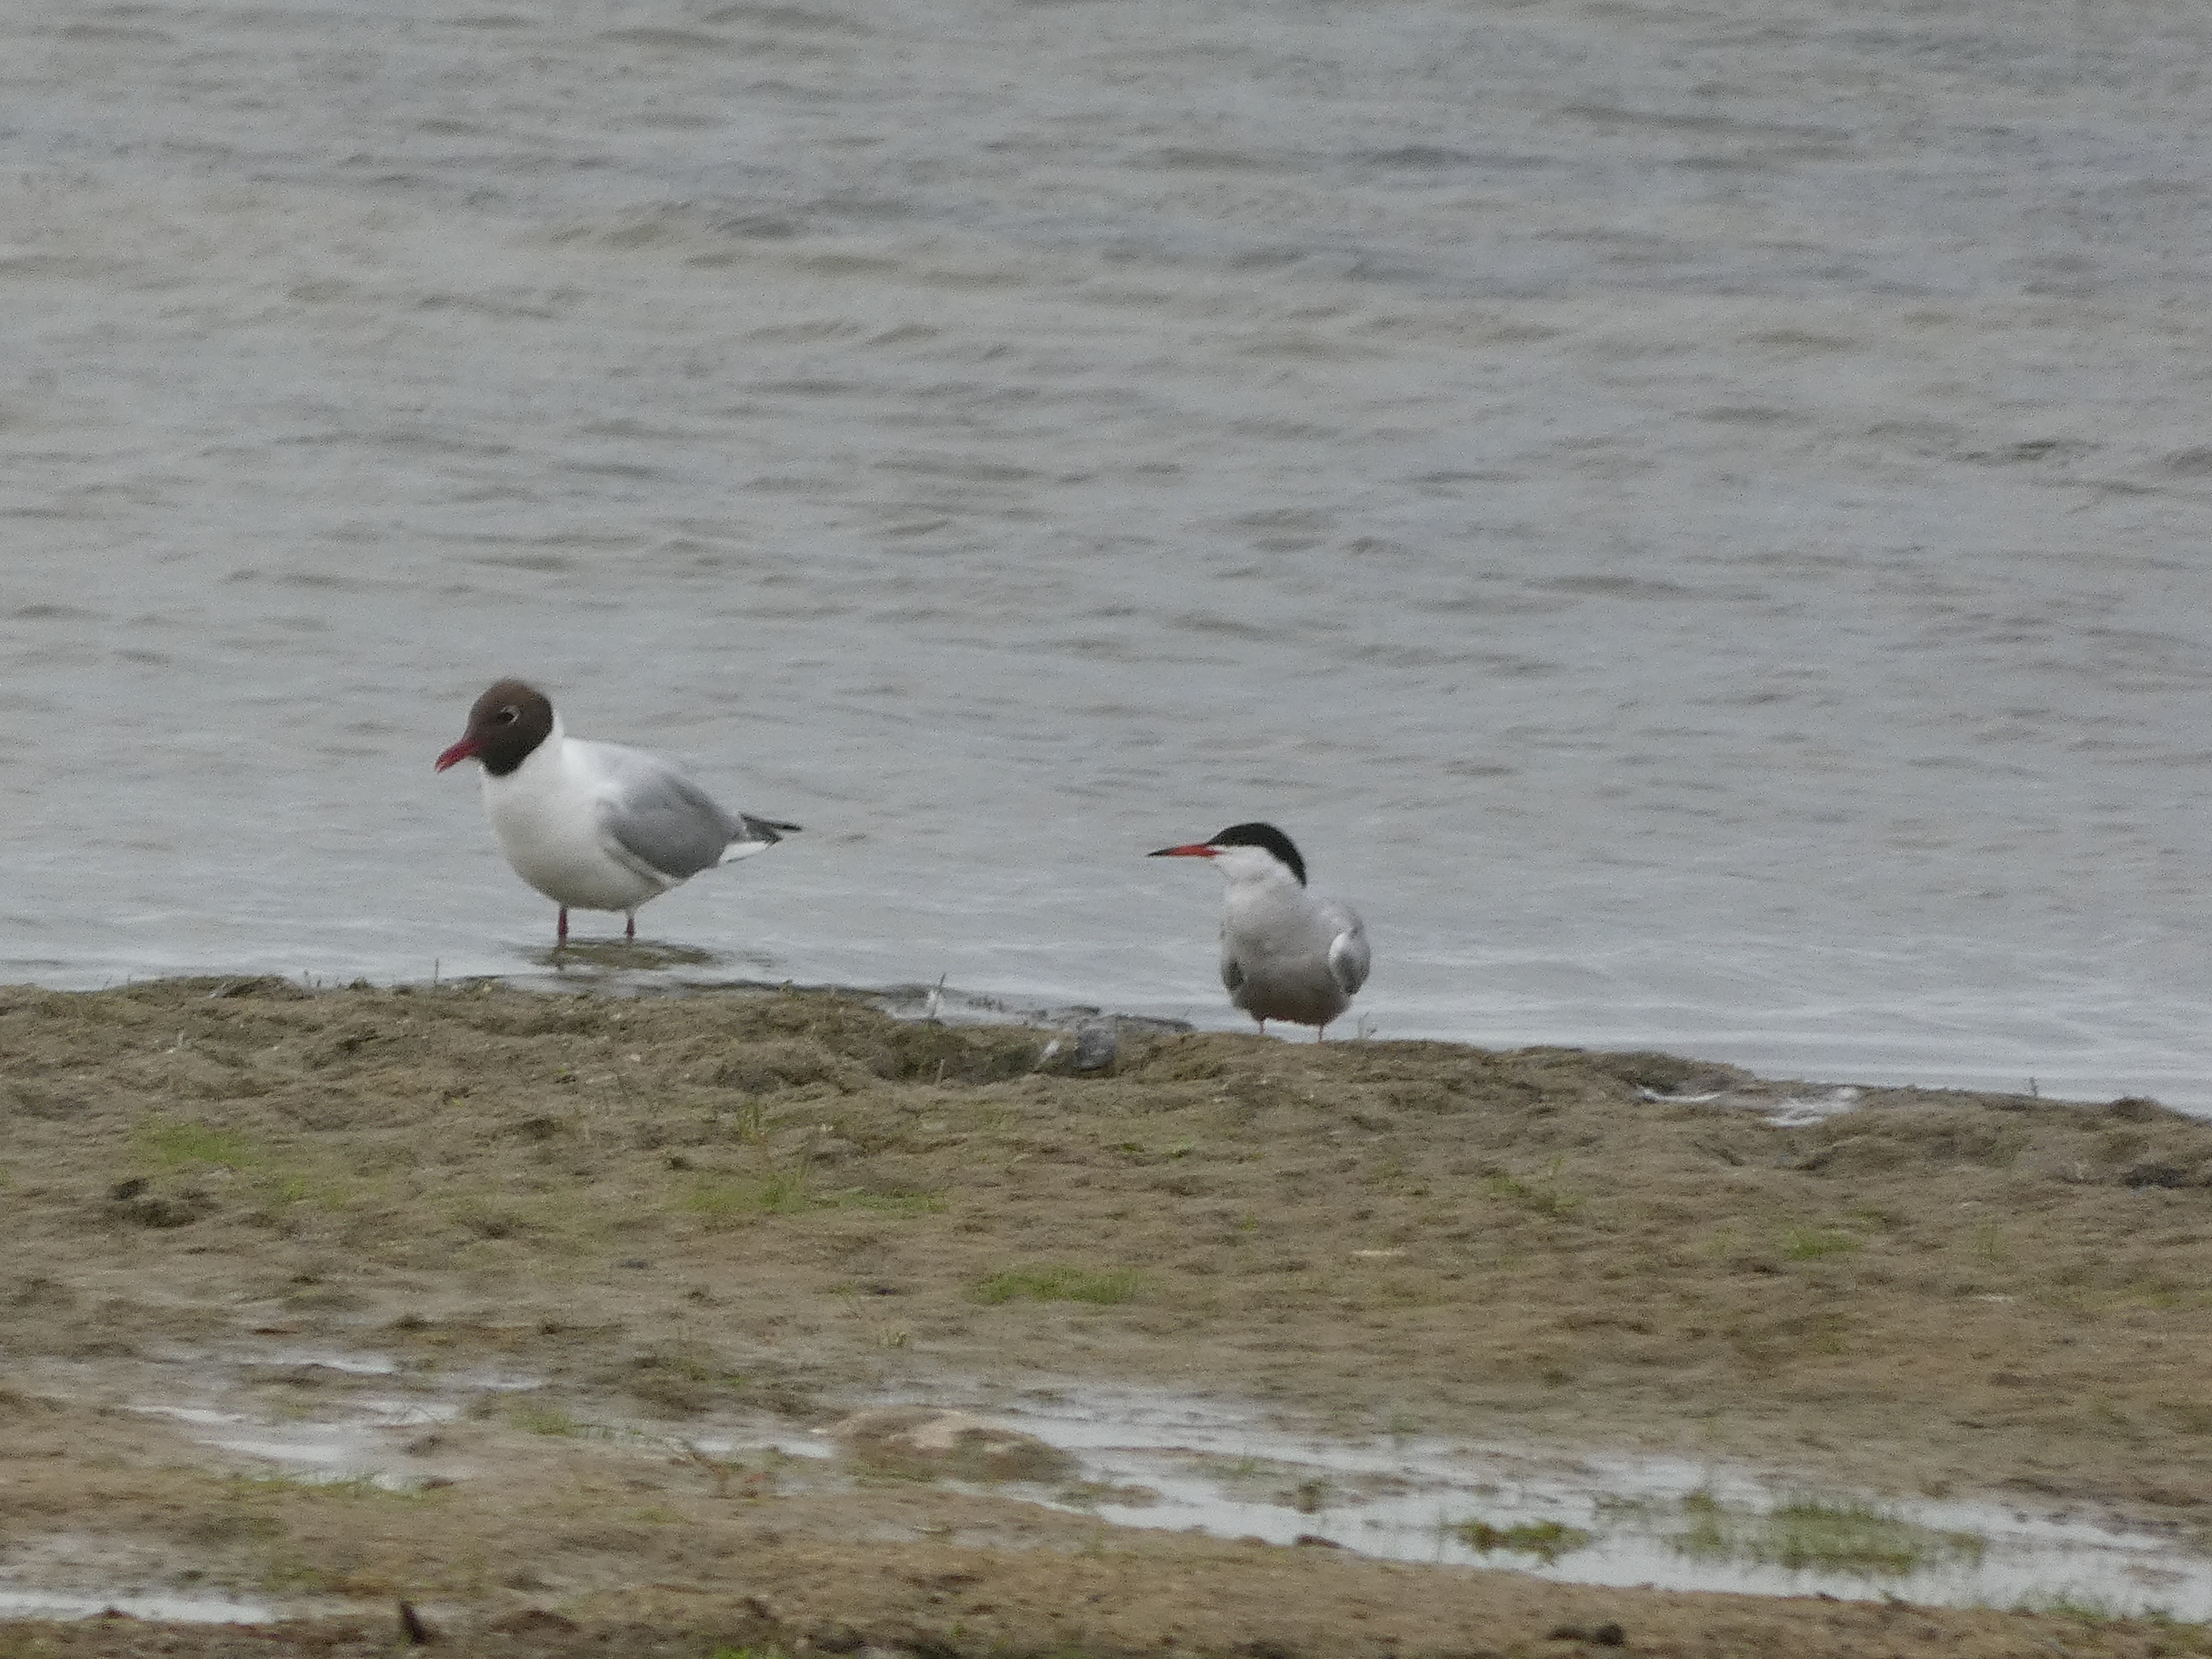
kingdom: Animalia
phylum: Chordata
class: Aves
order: Charadriiformes
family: Laridae
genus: Sterna
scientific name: Sterna hirundo
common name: Fjordterne
